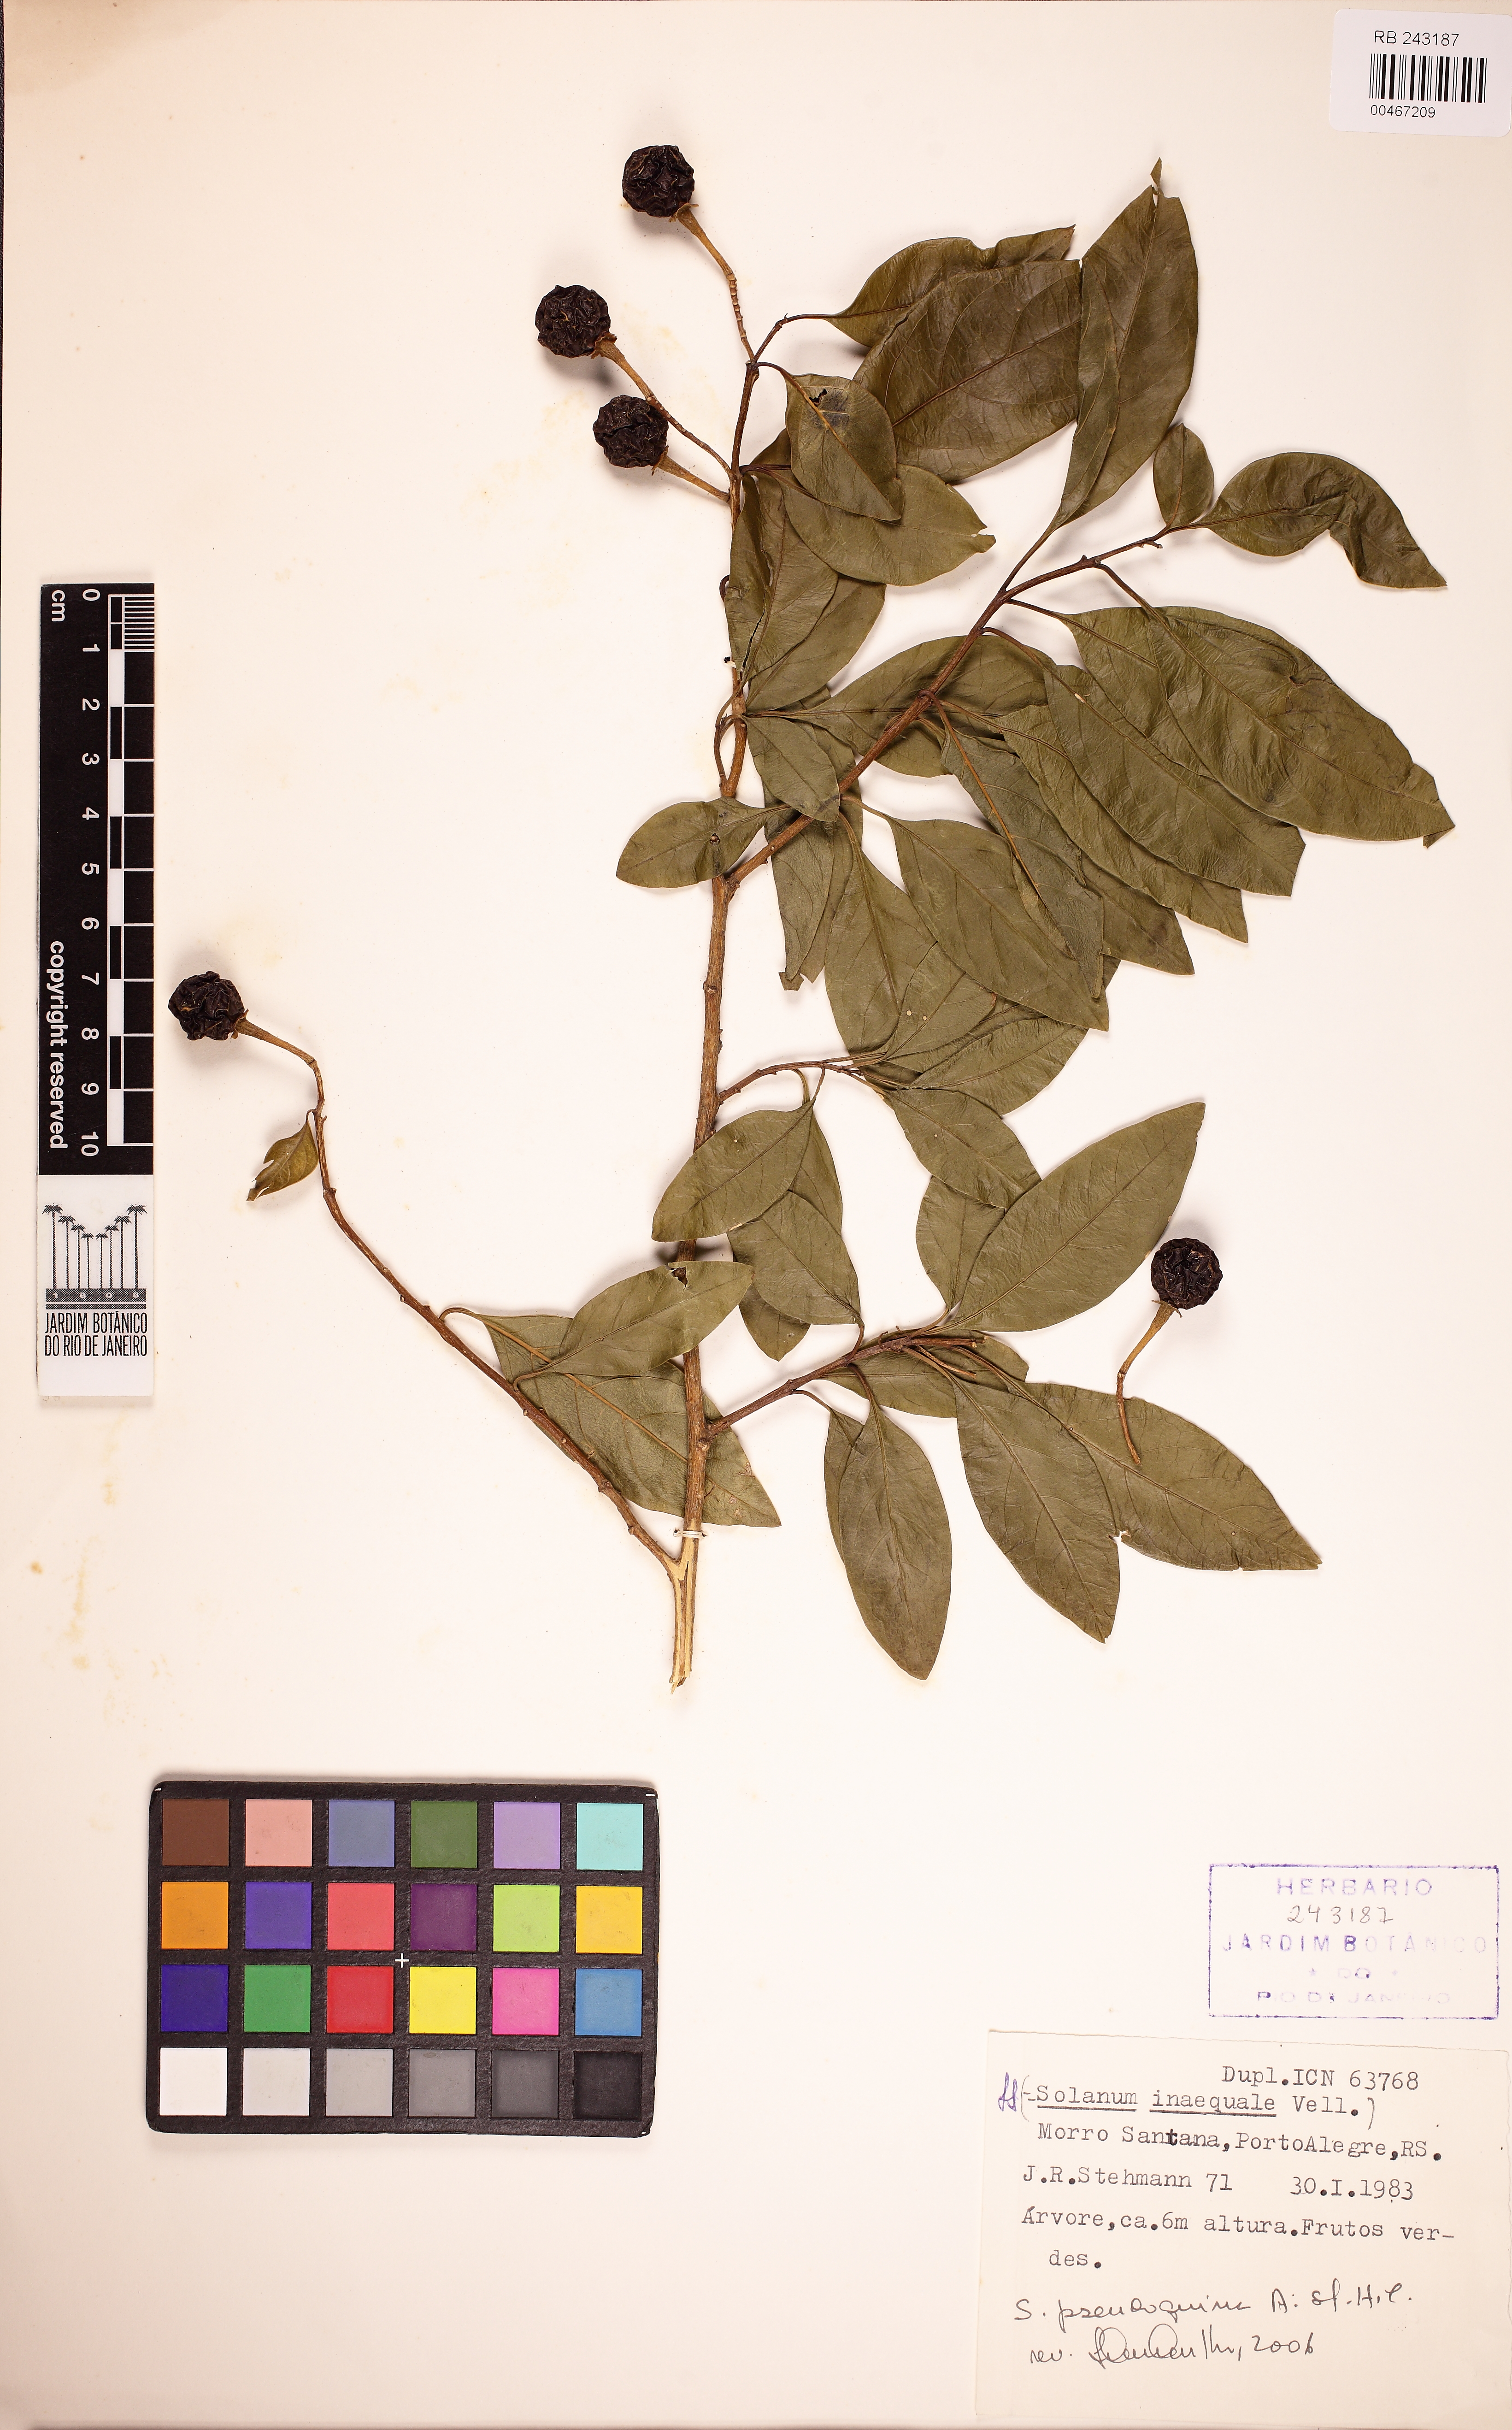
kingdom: Plantae
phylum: Tracheophyta
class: Magnoliopsida
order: Solanales
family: Solanaceae
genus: Solanum
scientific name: Solanum pseudoquina
